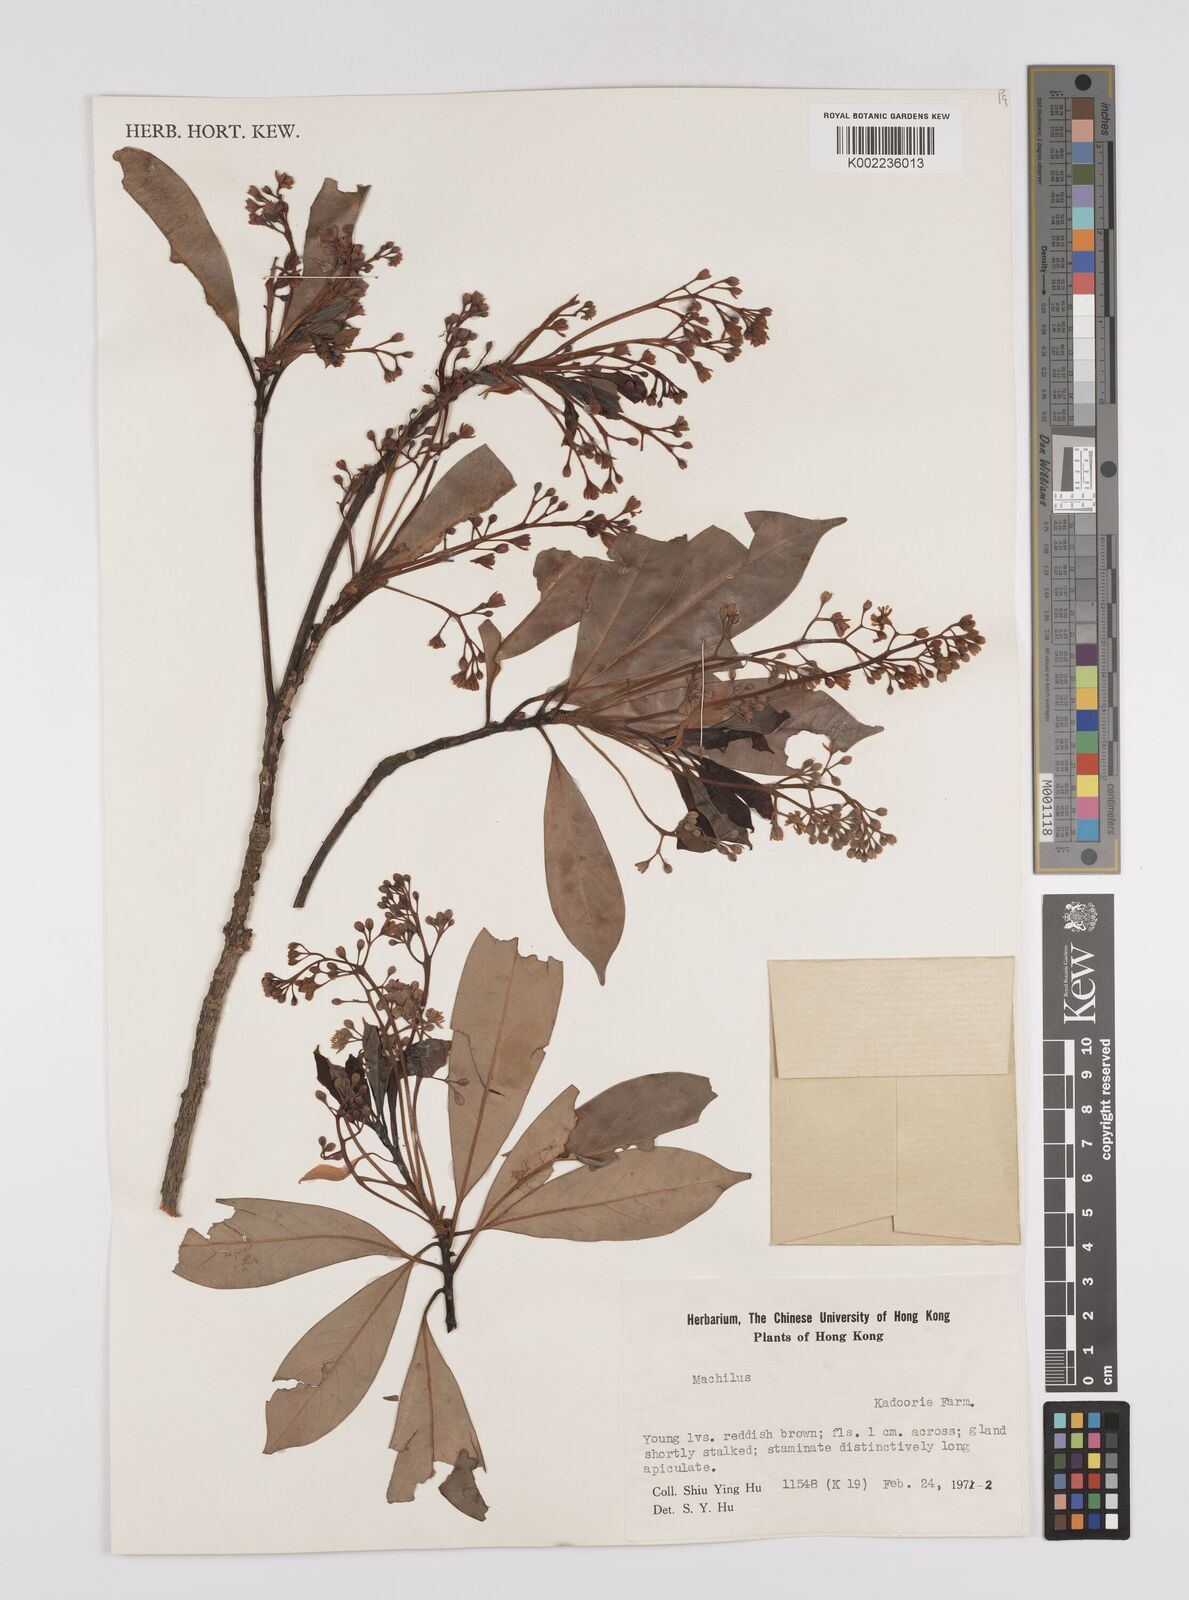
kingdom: Plantae
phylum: Tracheophyta
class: Magnoliopsida
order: Laurales
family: Lauraceae
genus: Persea
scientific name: Persea
